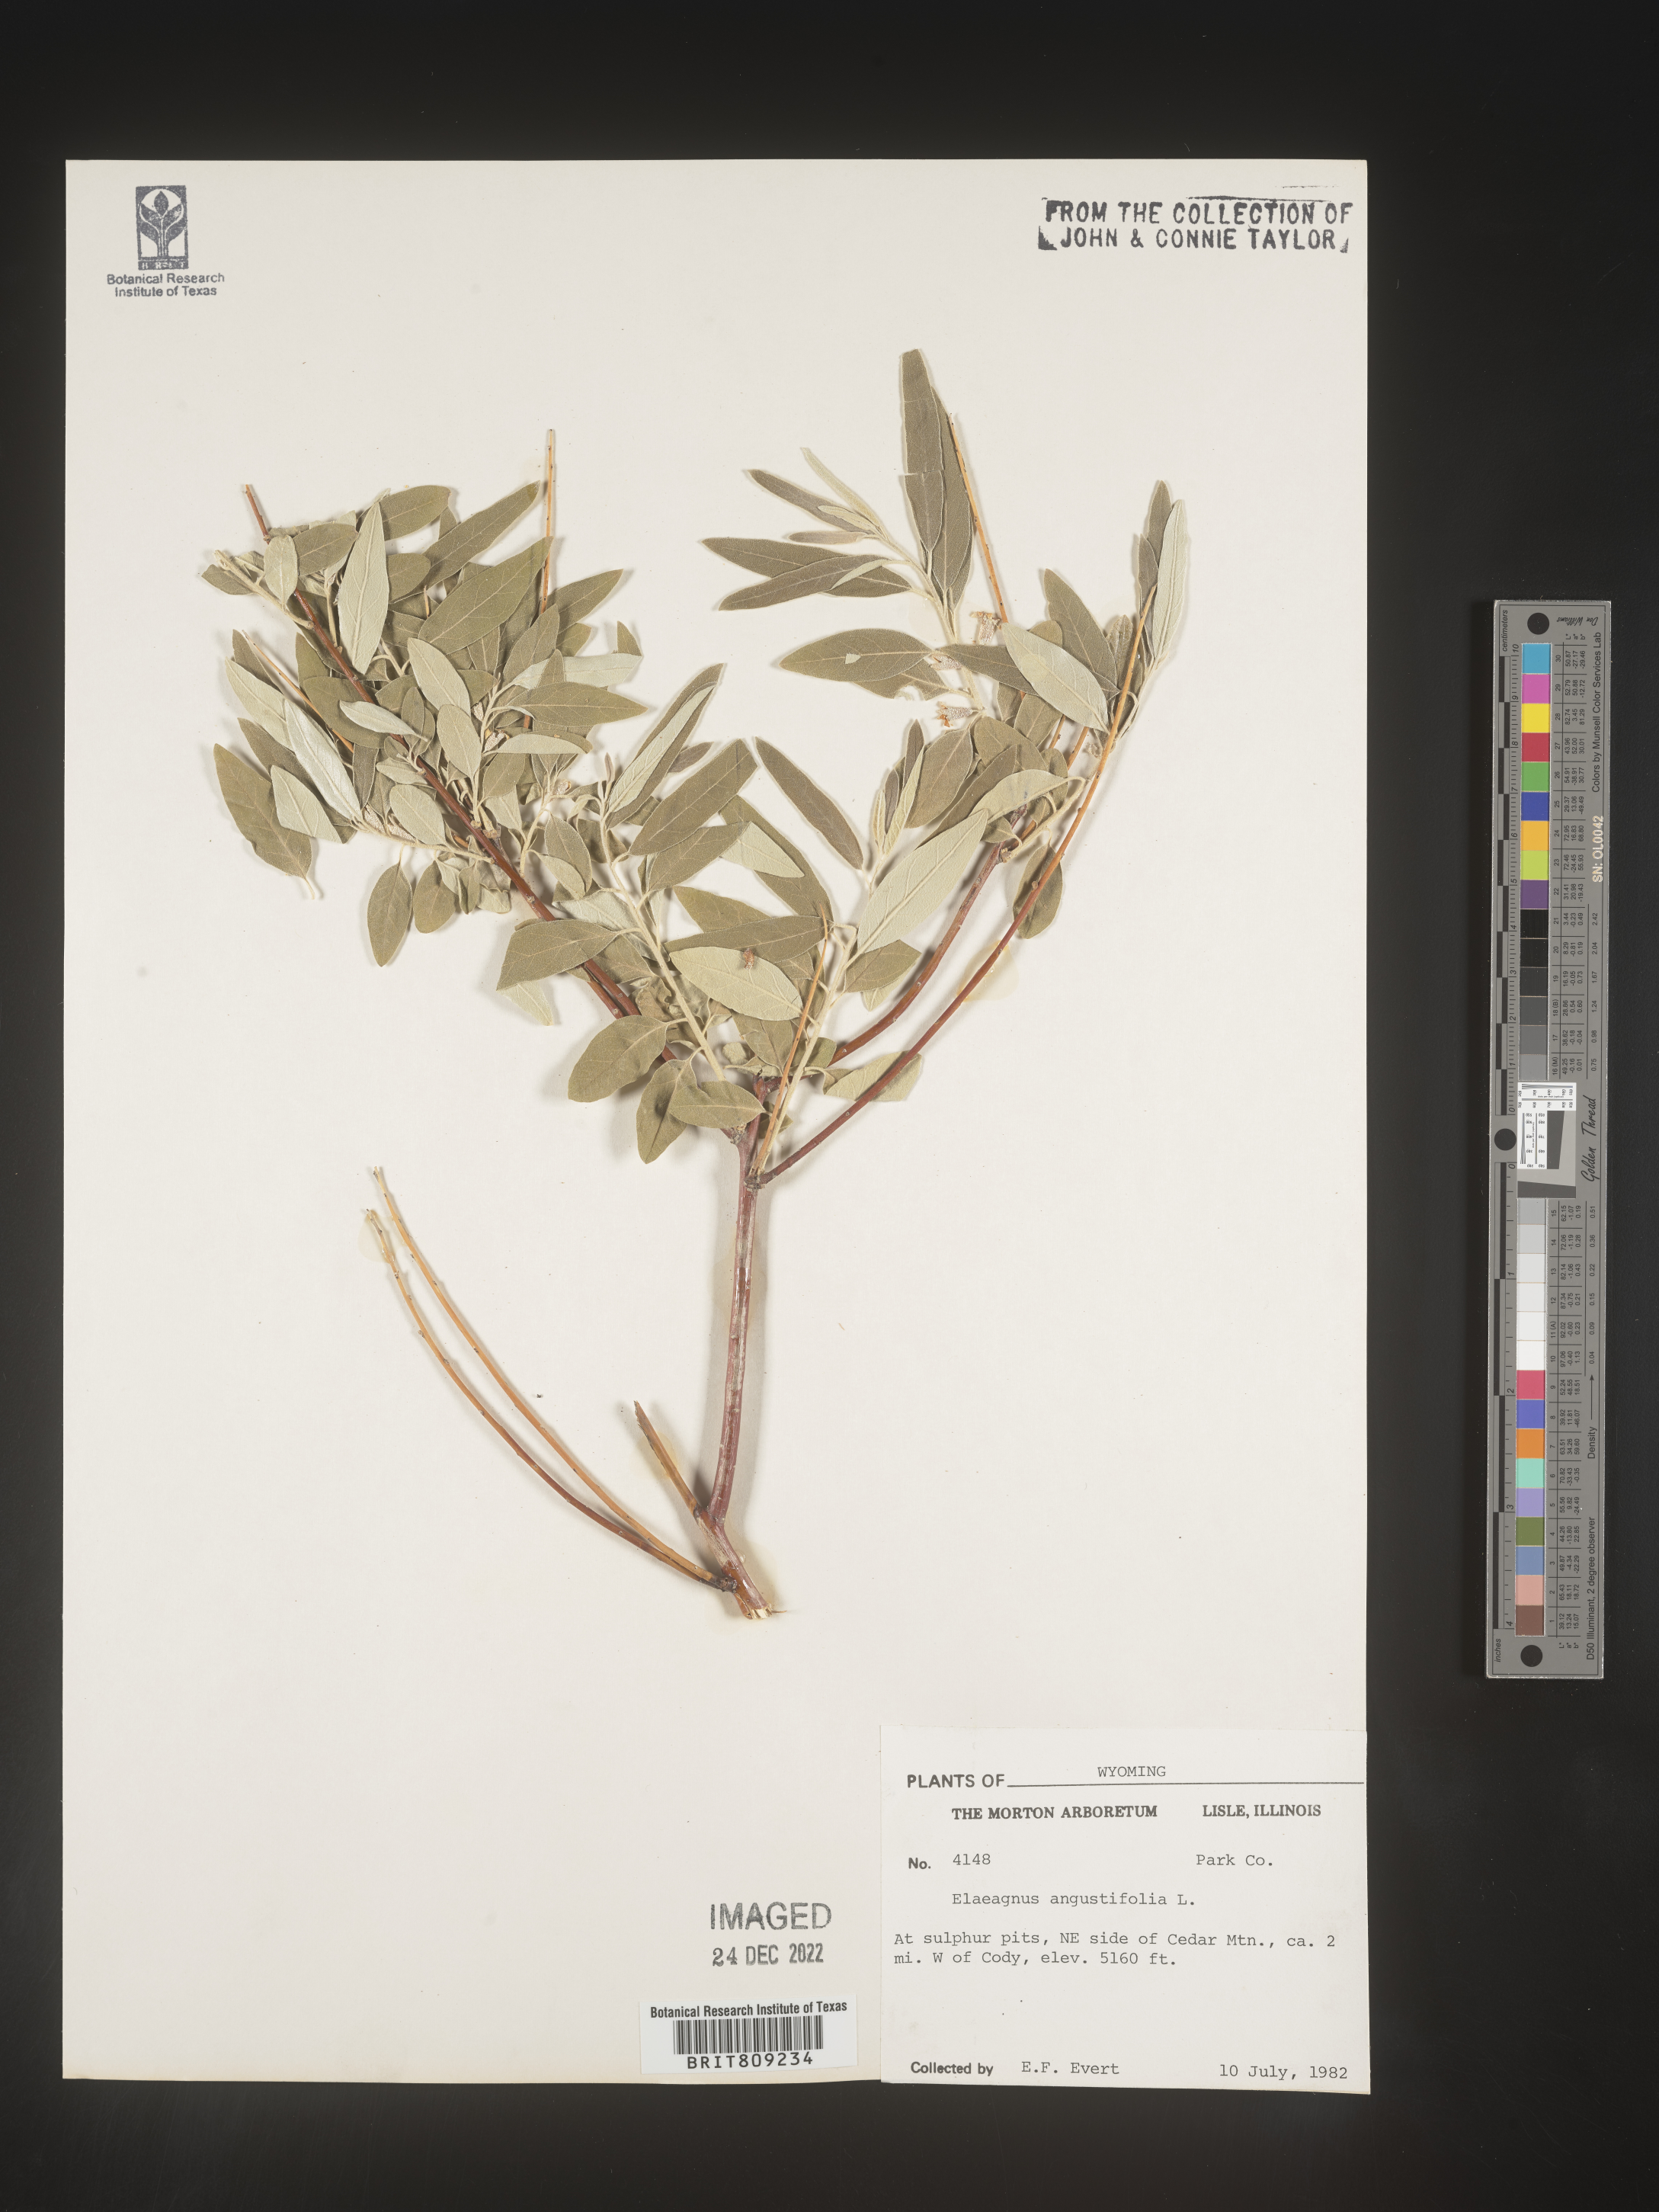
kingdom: Plantae
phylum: Tracheophyta
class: Magnoliopsida
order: Rosales
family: Elaeagnaceae
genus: Elaeagnus
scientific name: Elaeagnus angustifolia
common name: Russian olive
